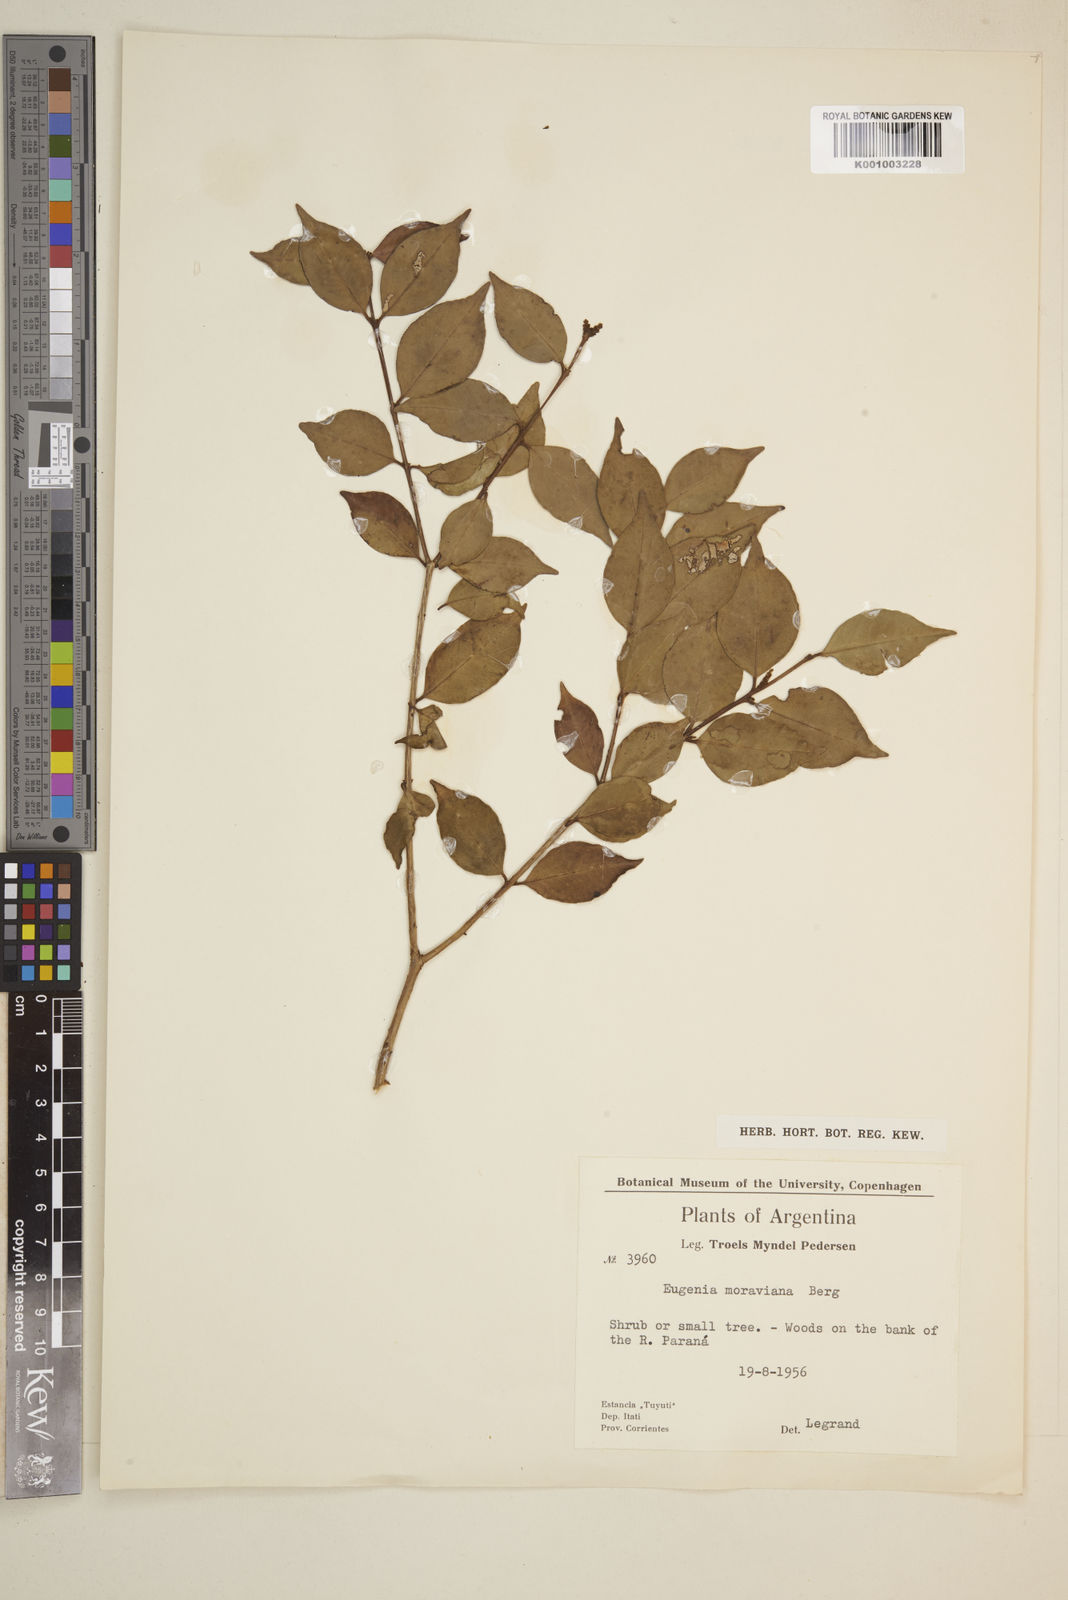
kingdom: Plantae
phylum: Tracheophyta
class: Magnoliopsida
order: Myrtales
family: Myrtaceae
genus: Eugenia
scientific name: Eugenia moraviana
